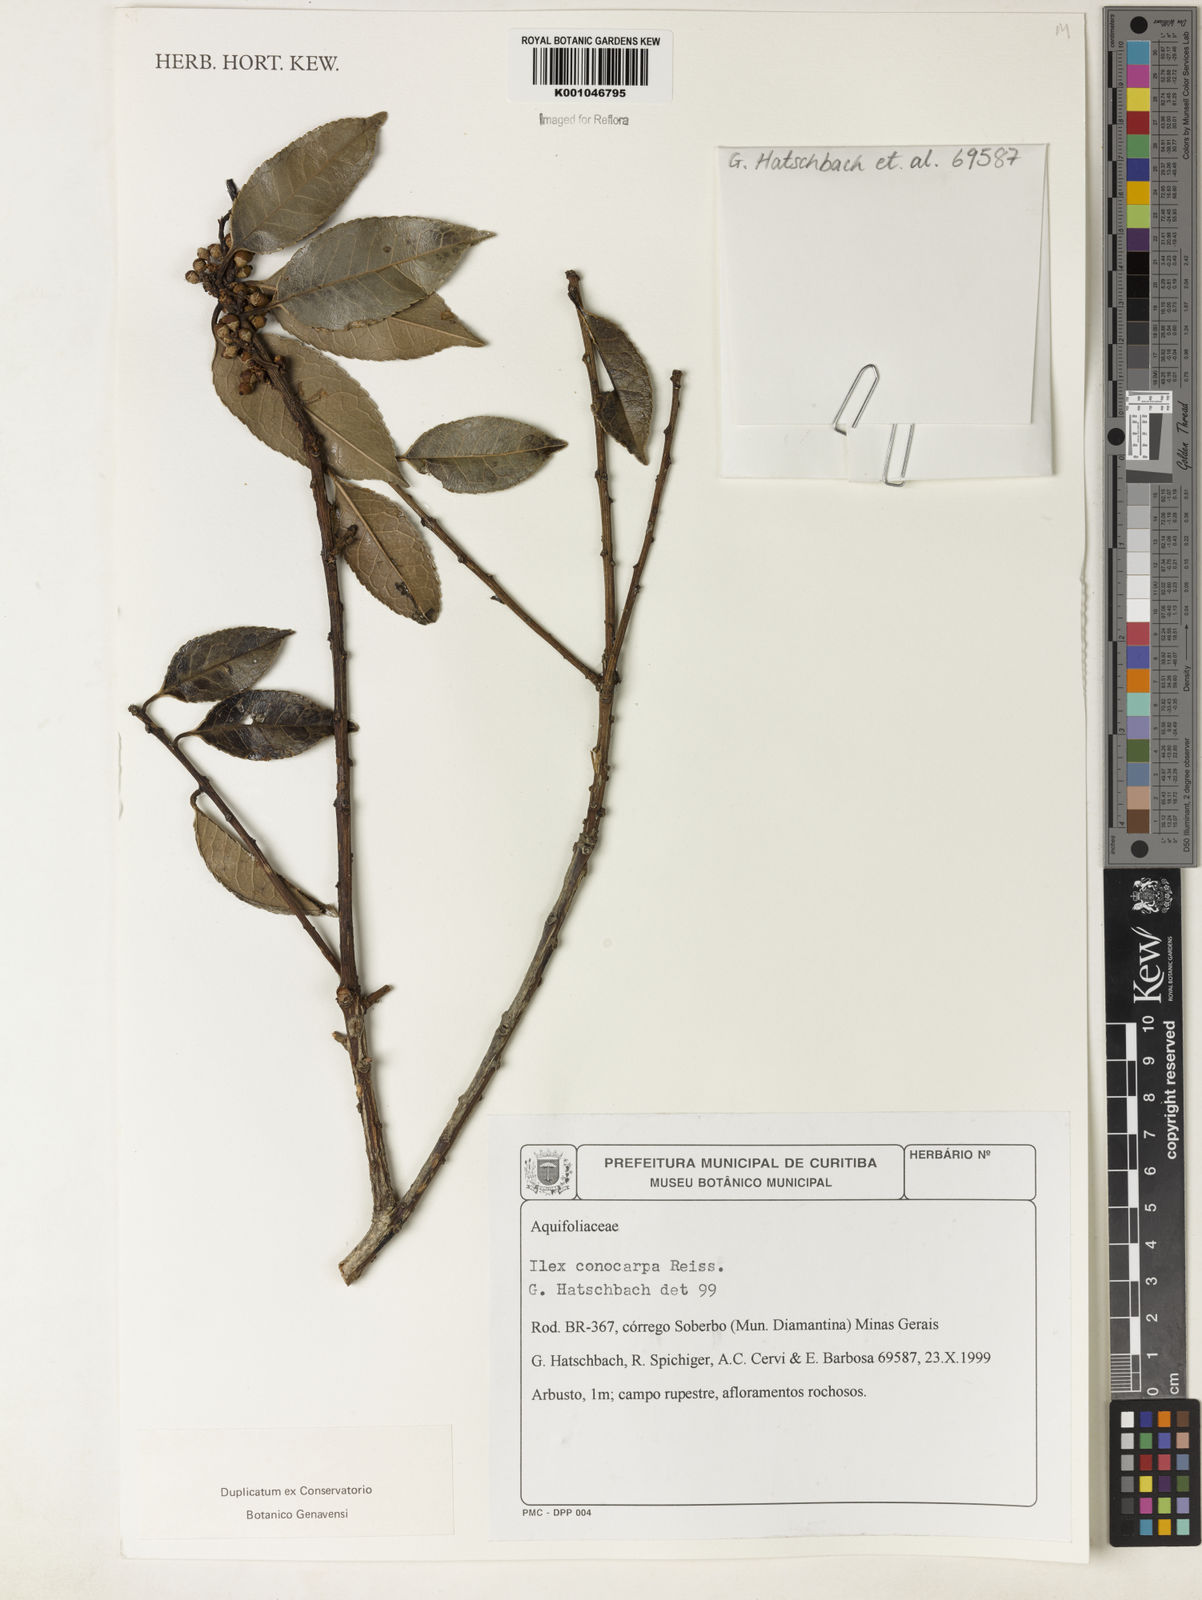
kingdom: Plantae
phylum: Tracheophyta
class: Magnoliopsida
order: Aquifoliales
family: Aquifoliaceae
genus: Ilex
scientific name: Ilex conocarpa
